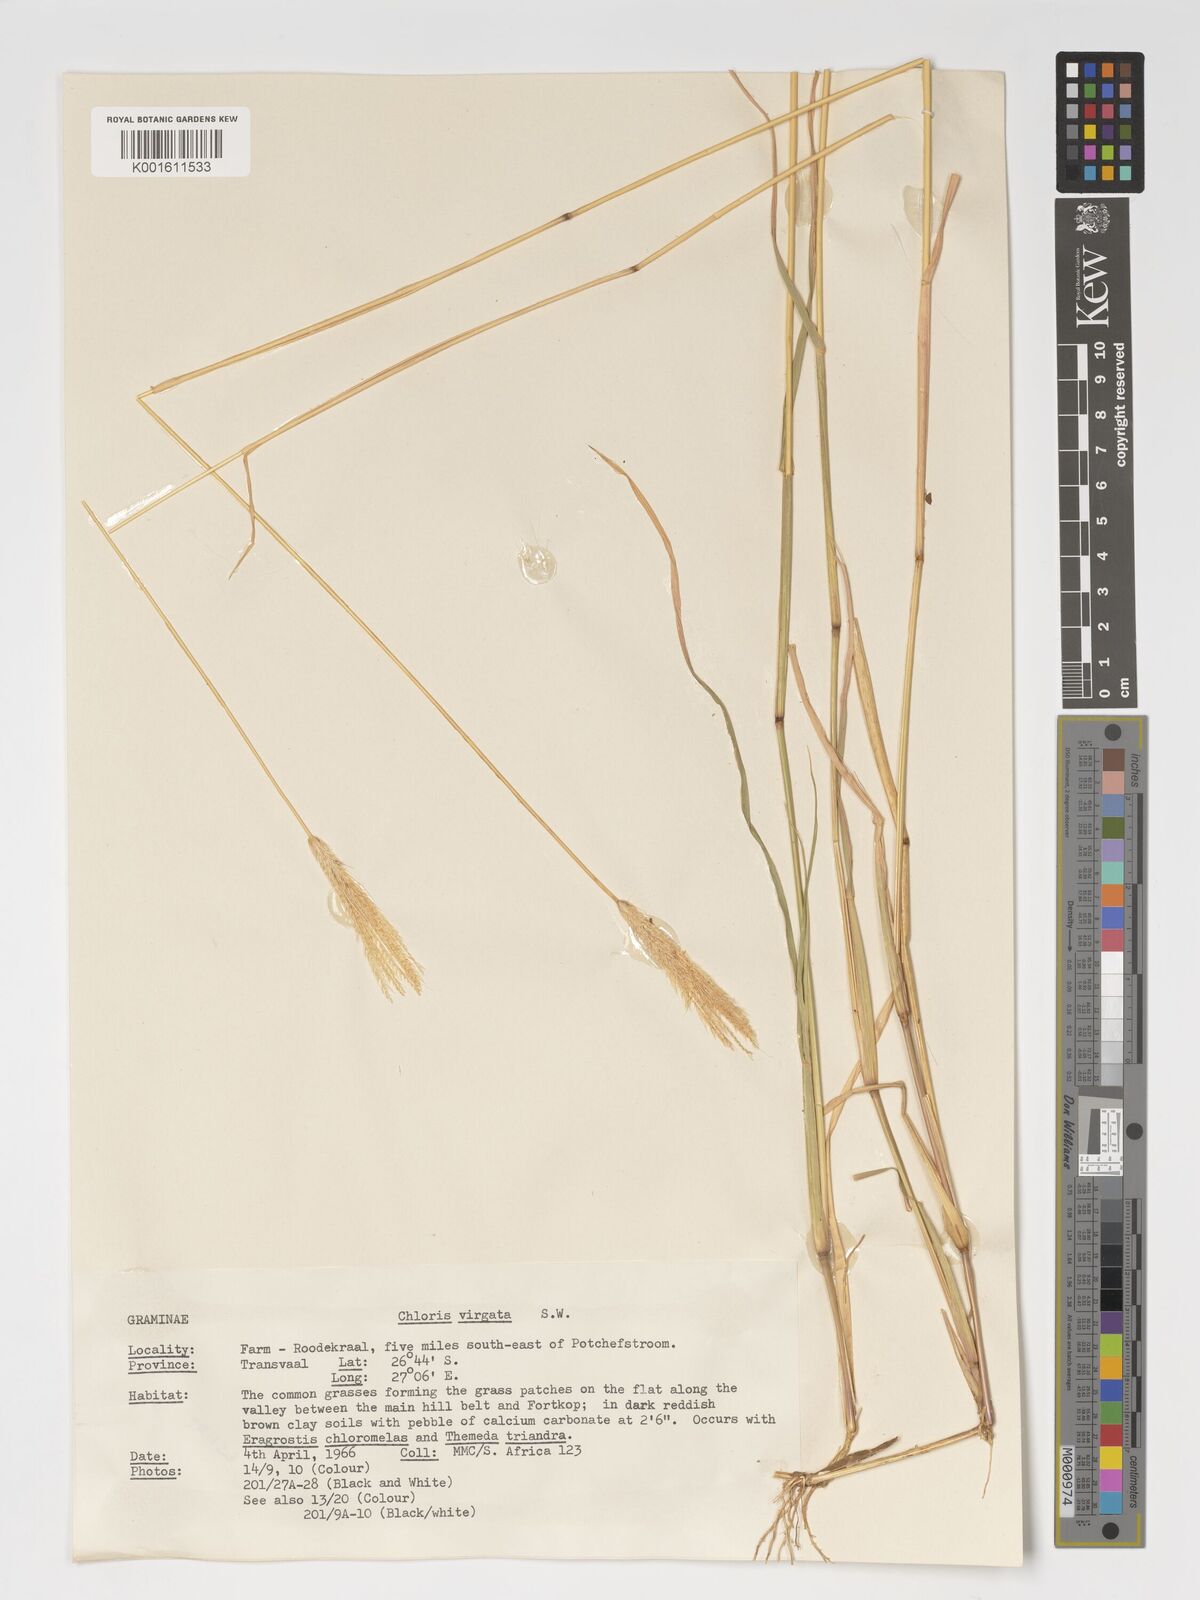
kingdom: Plantae
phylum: Tracheophyta
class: Liliopsida
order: Poales
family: Poaceae
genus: Chloris
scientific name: Chloris virgata
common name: Feathery rhodes-grass
